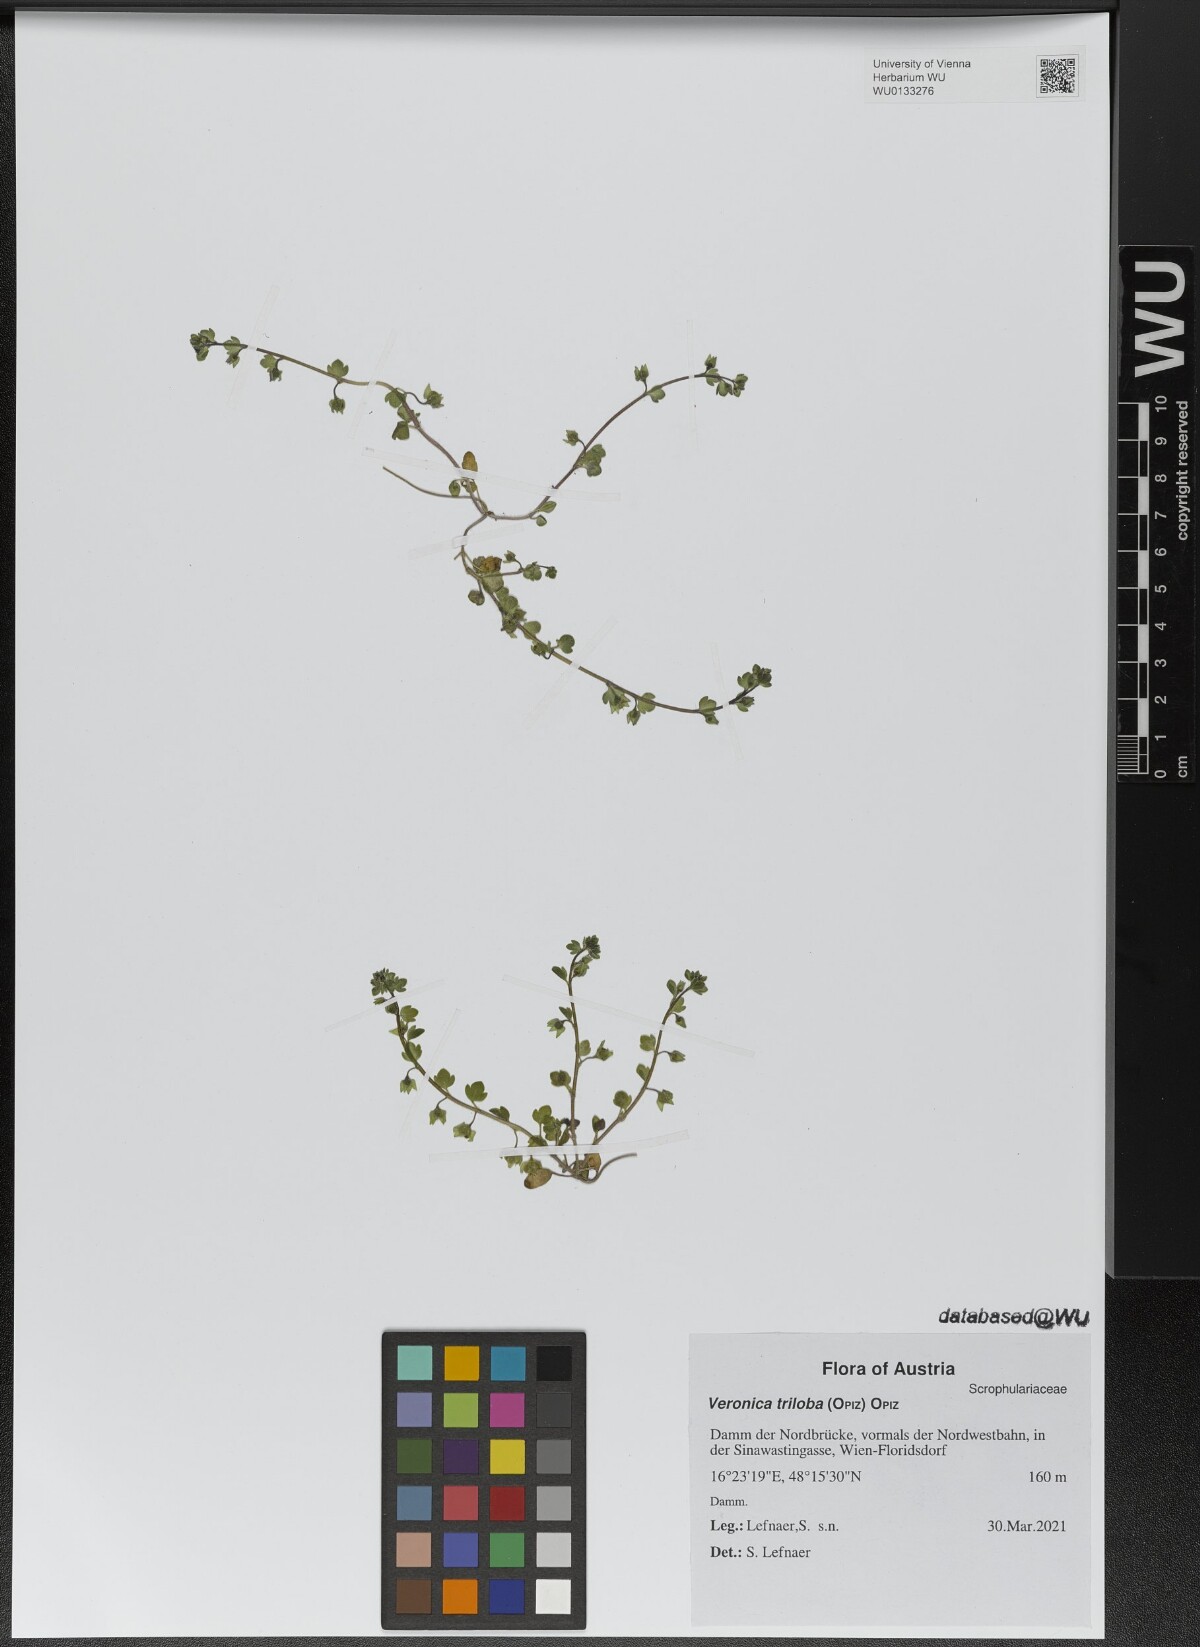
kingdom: Plantae
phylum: Tracheophyta
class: Magnoliopsida
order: Lamiales
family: Plantaginaceae
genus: Veronica
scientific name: Veronica triloba
